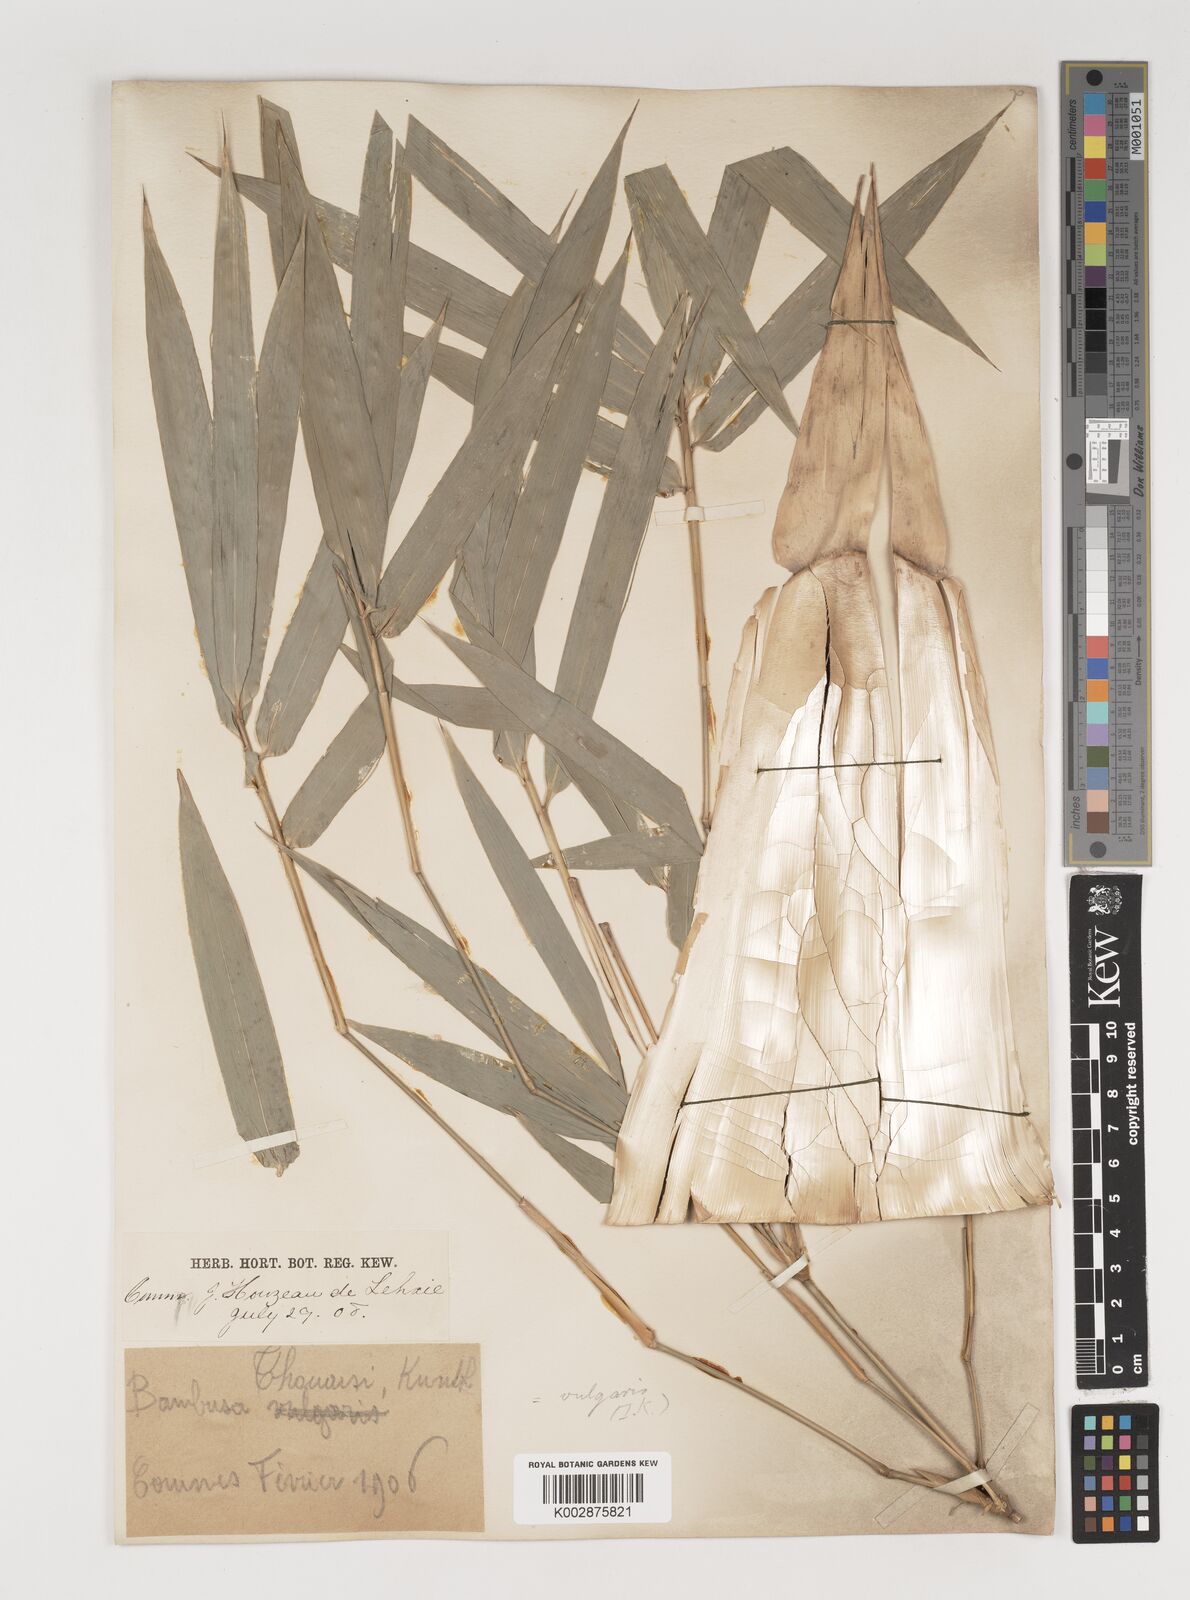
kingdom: Plantae
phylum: Tracheophyta
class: Liliopsida
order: Poales
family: Poaceae
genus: Bambusa
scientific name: Bambusa balcooa
